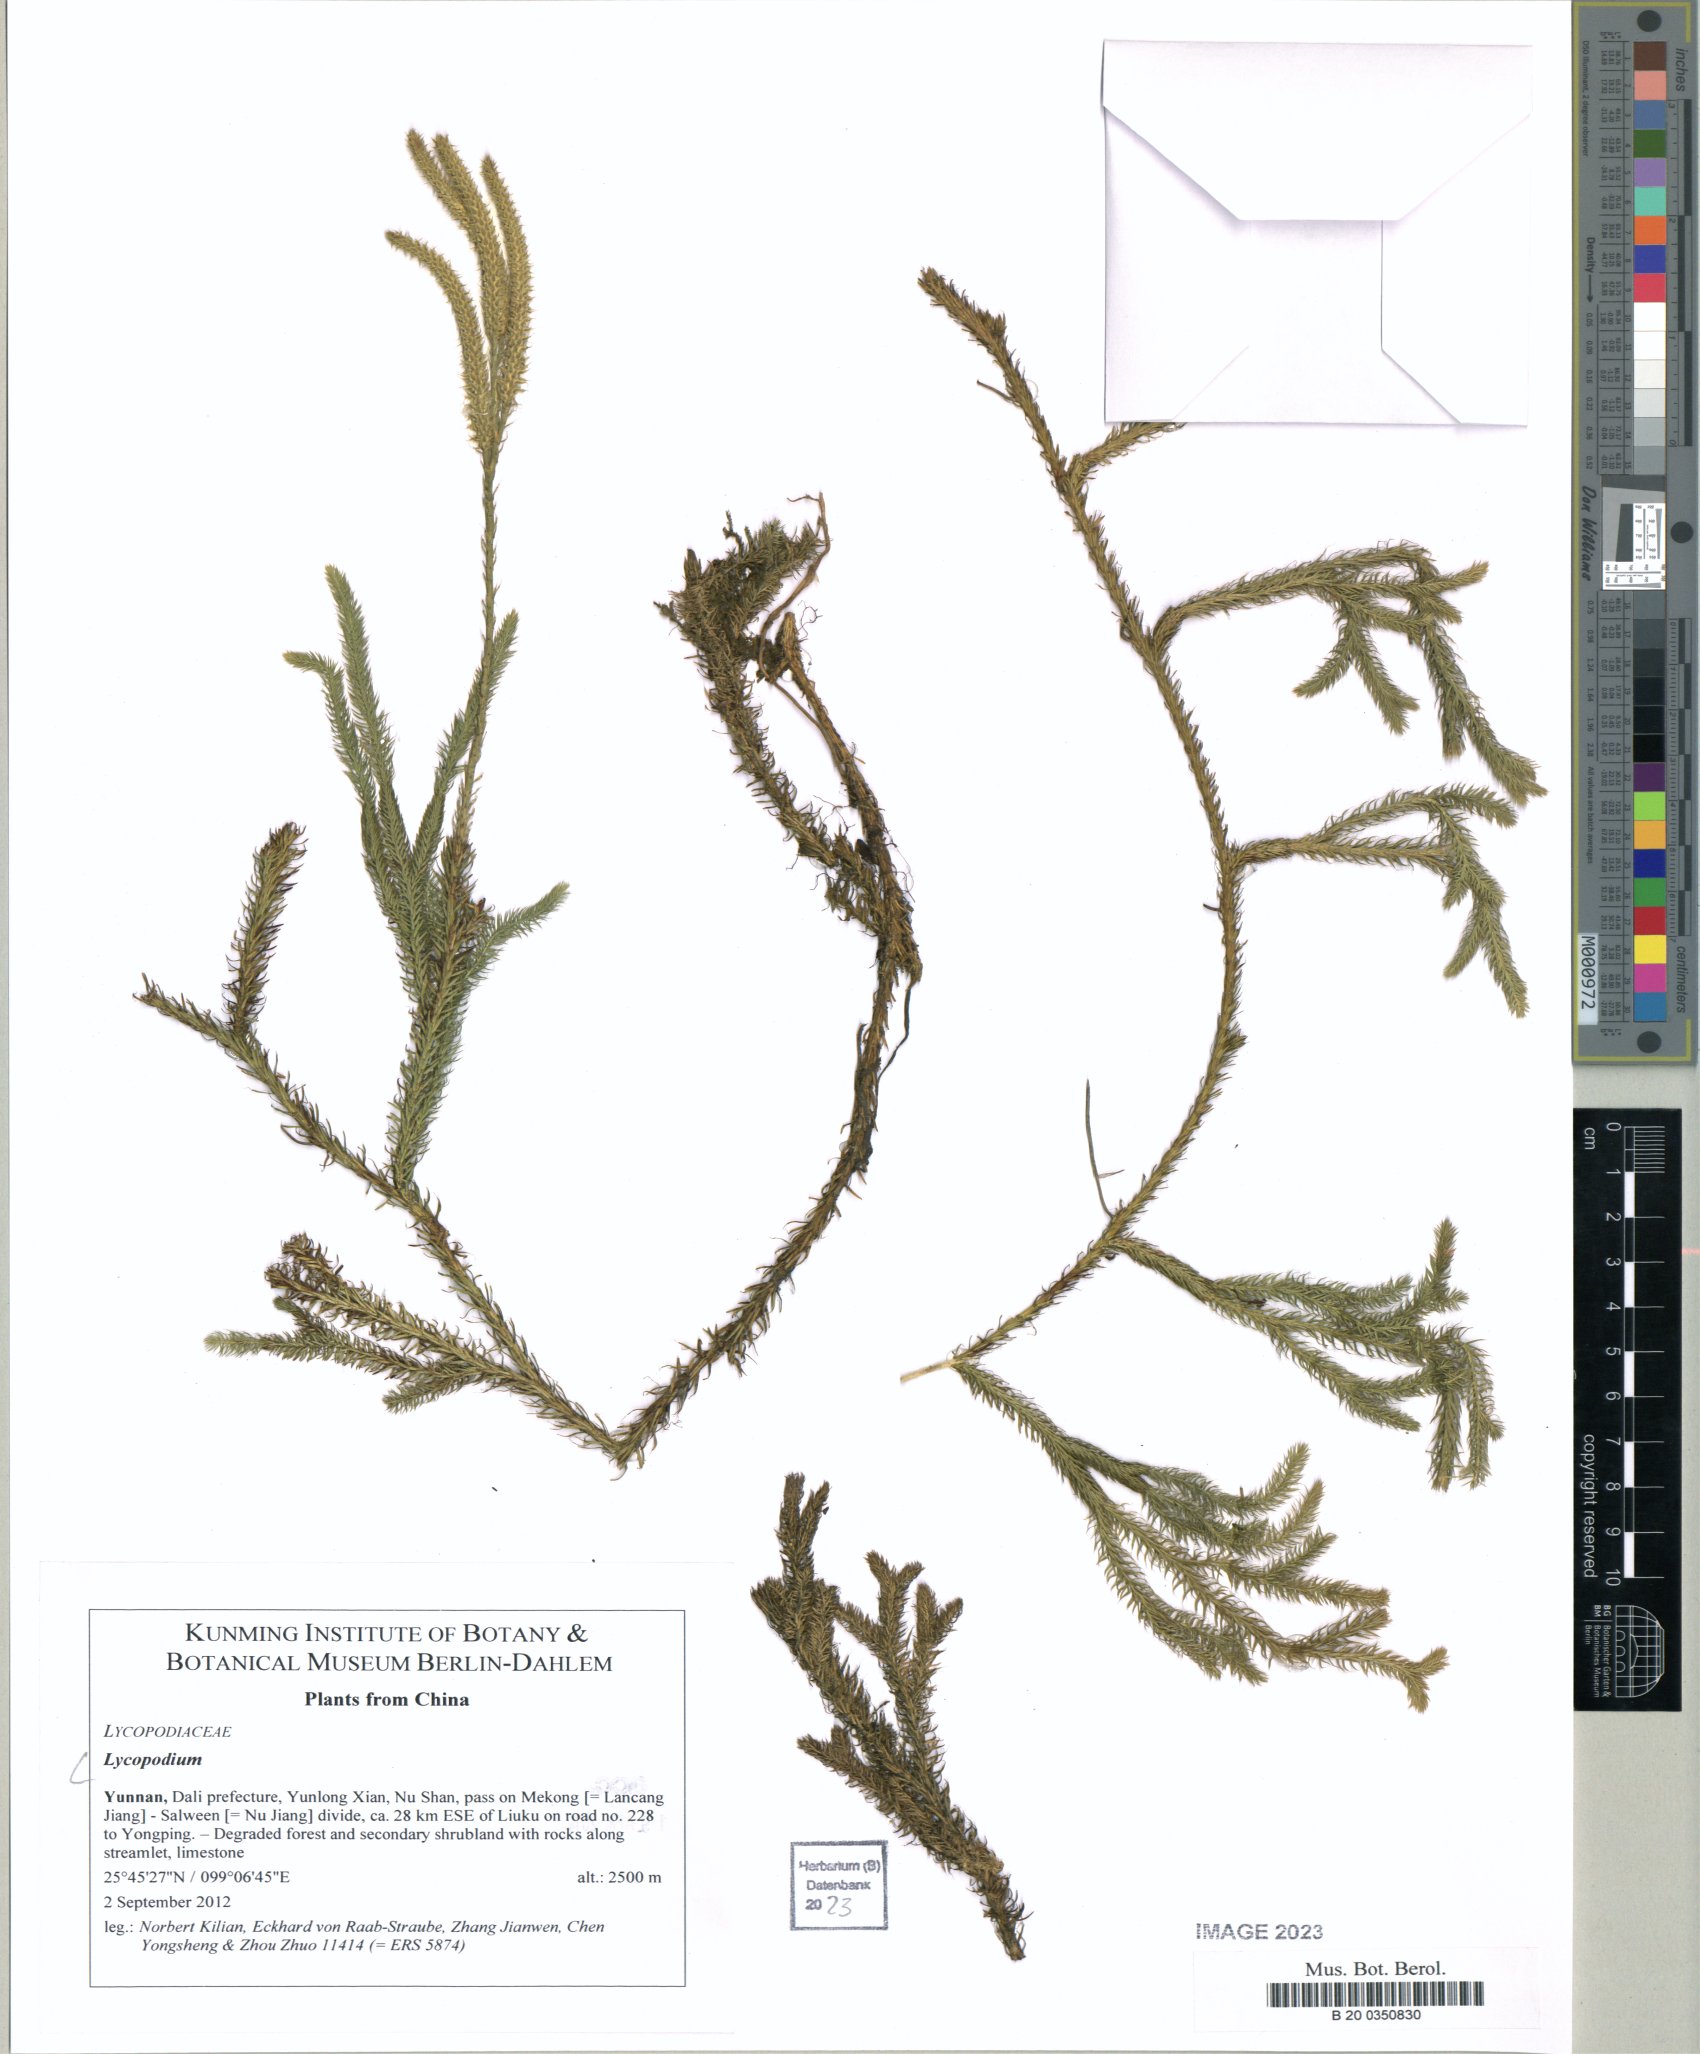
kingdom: Plantae
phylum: Tracheophyta
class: Lycopodiopsida
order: Lycopodiales
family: Lycopodiaceae
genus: Lycopodium
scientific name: Lycopodium
